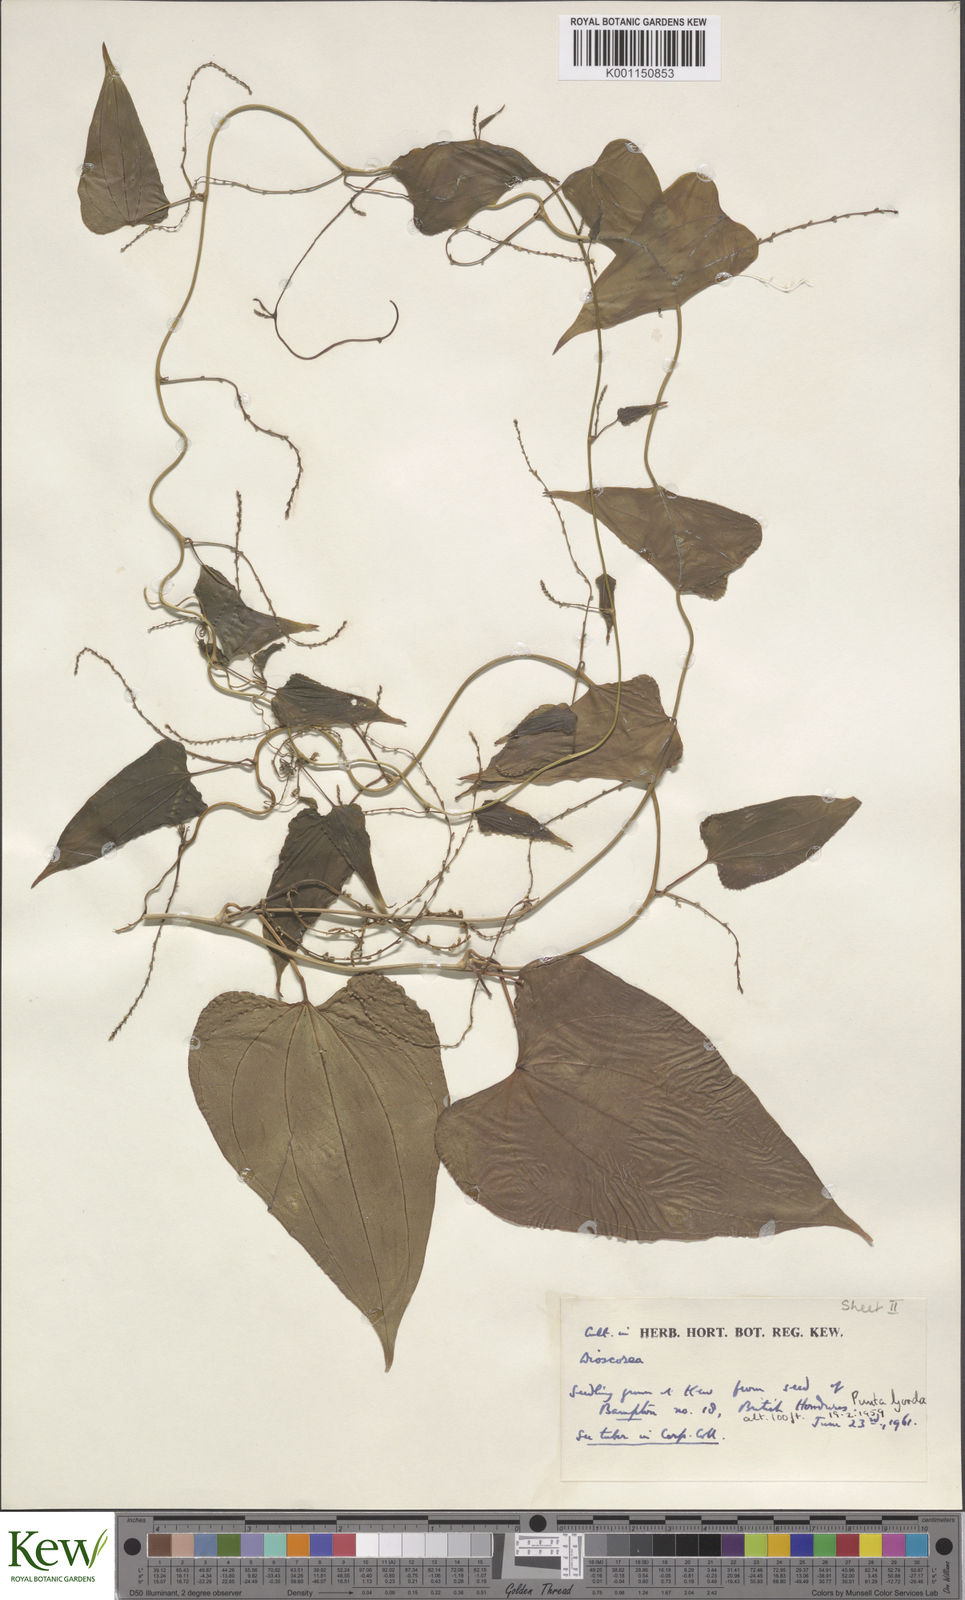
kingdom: Plantae
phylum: Tracheophyta
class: Liliopsida
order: Dioscoreales
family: Dioscoreaceae
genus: Dioscorea
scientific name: Dioscorea
